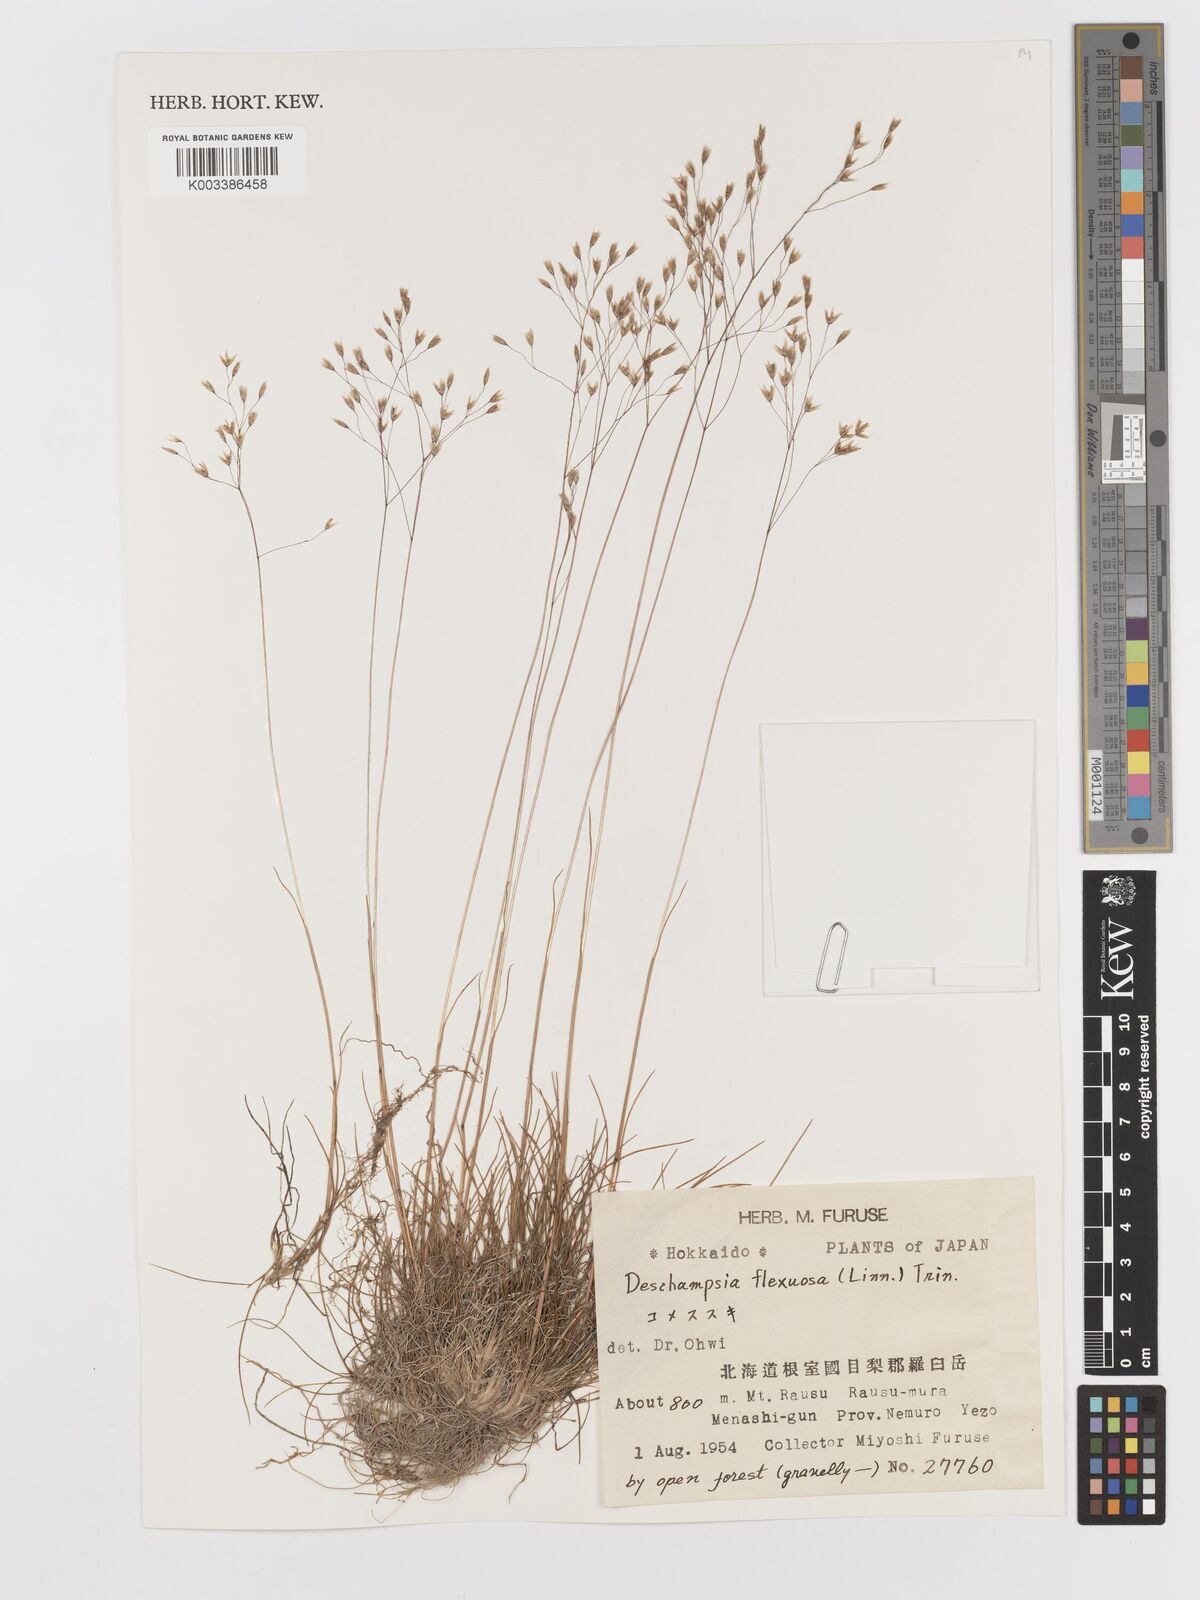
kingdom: Plantae
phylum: Tracheophyta
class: Liliopsida
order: Poales
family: Poaceae
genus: Avenella
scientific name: Avenella flexuosa
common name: Wavy hairgrass
